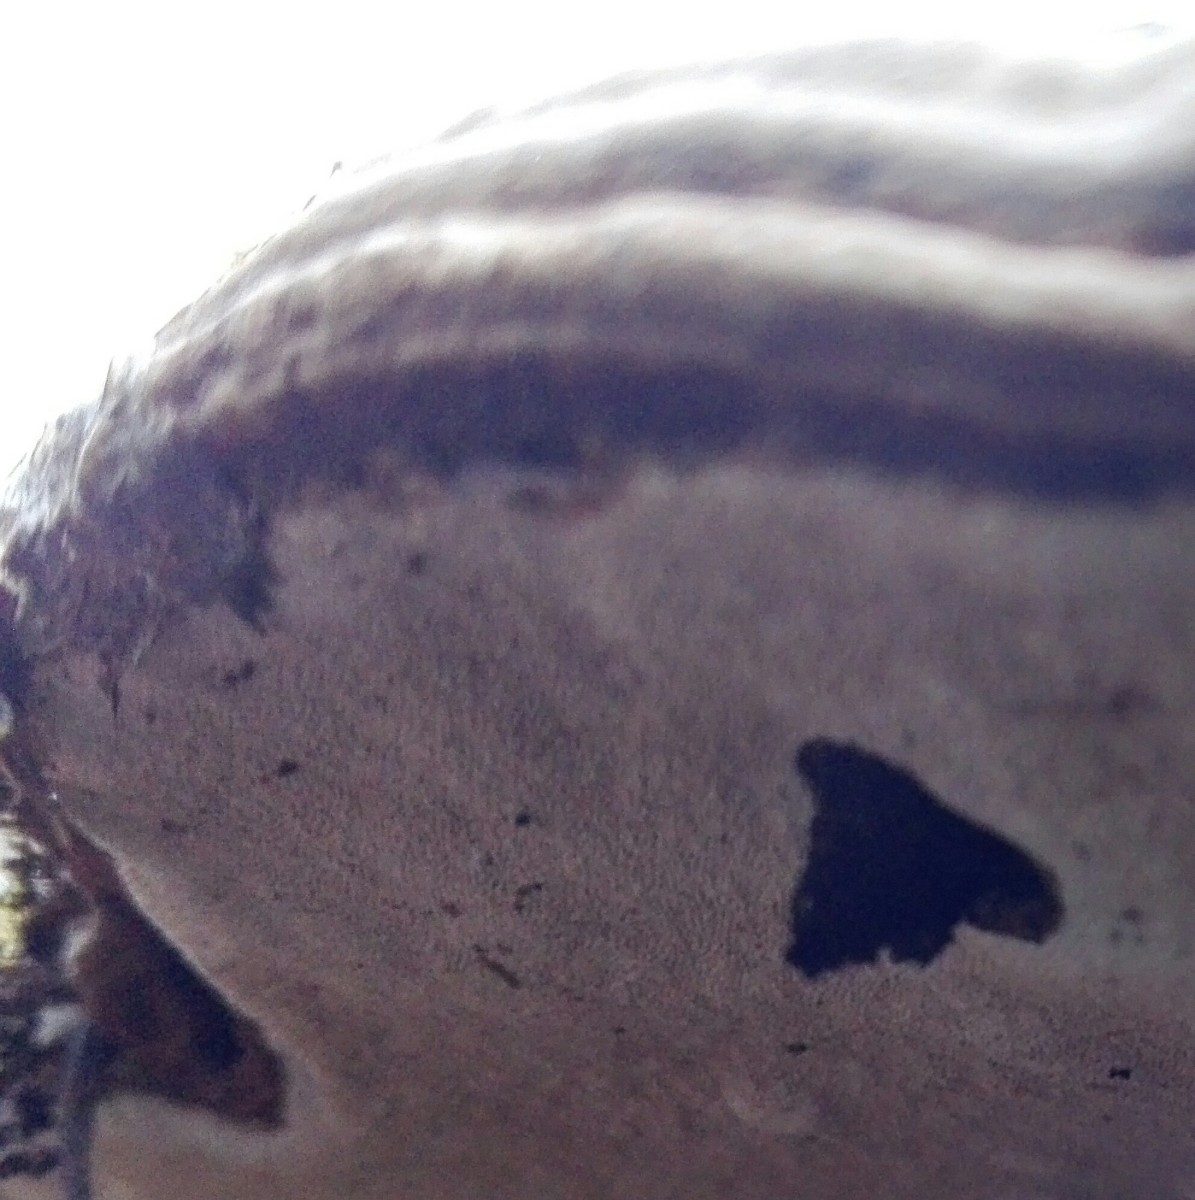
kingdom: Fungi
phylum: Basidiomycota
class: Agaricomycetes
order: Polyporales
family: Polyporaceae
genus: Ganoderma
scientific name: Ganoderma applanatum
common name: flad lakporesvamp
